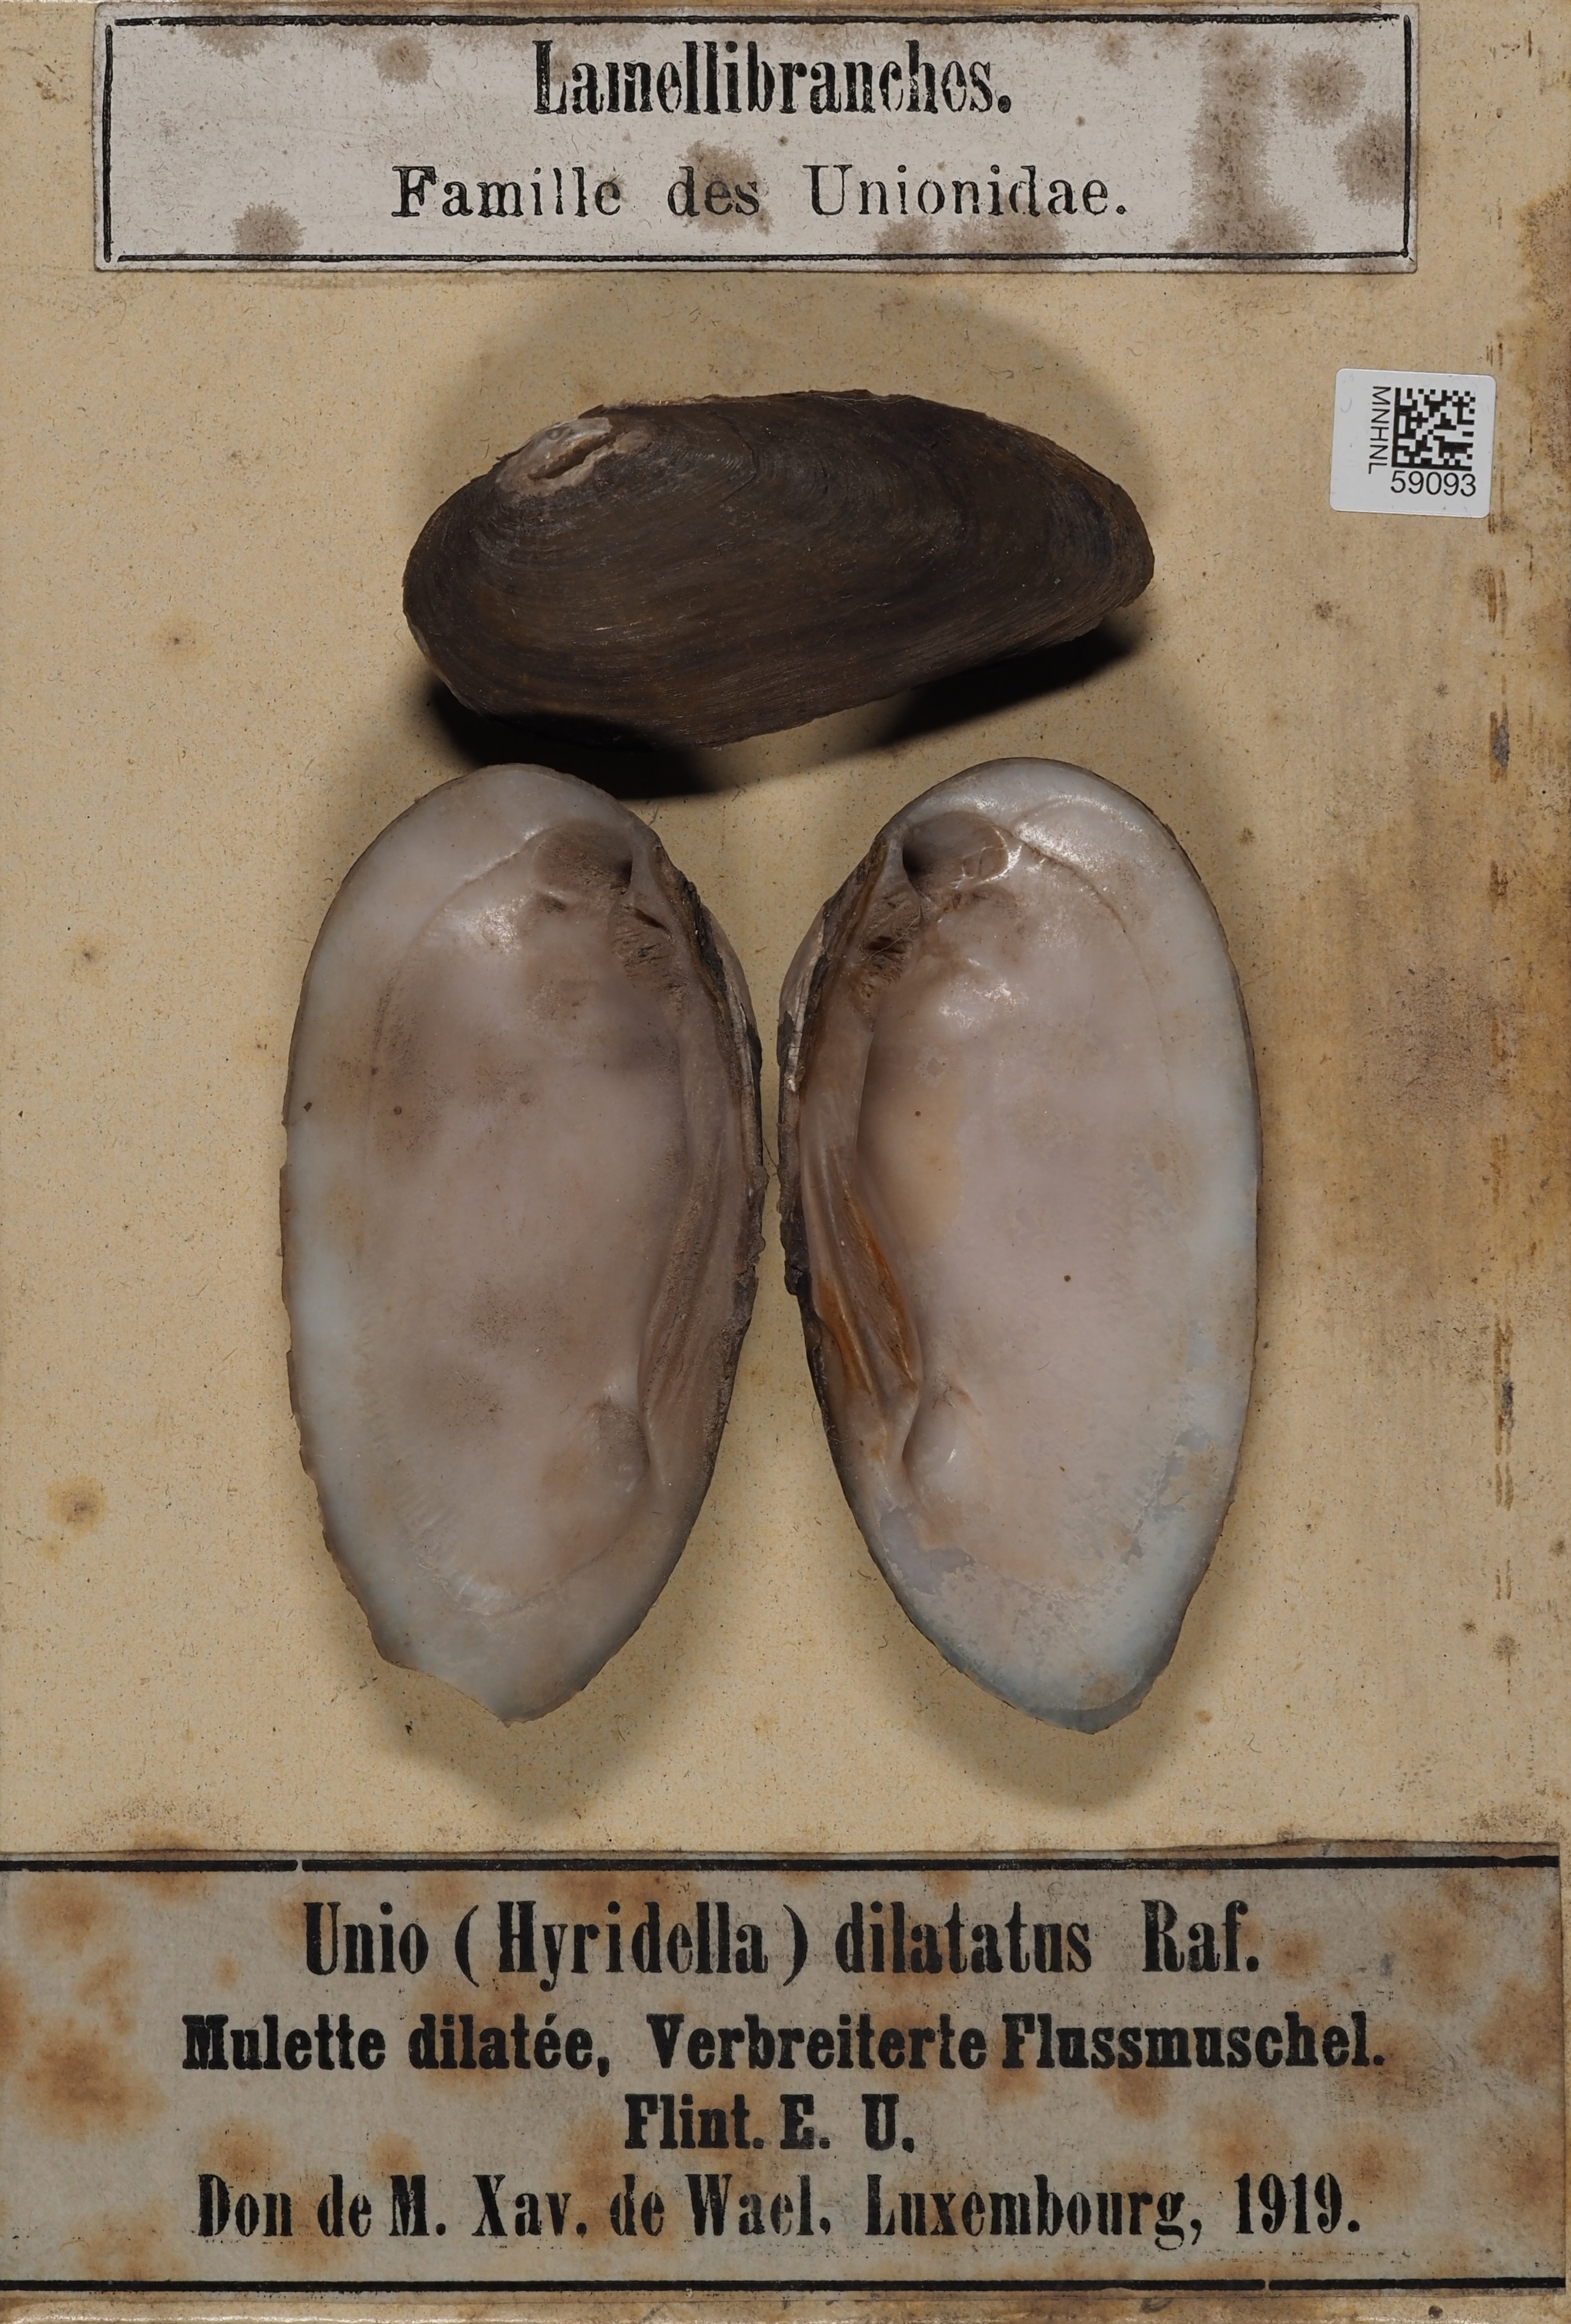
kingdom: Animalia
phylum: Mollusca
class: Bivalvia
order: Unionida
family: Unionidae
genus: Eurynia
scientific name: Eurynia dilatata
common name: Spike
